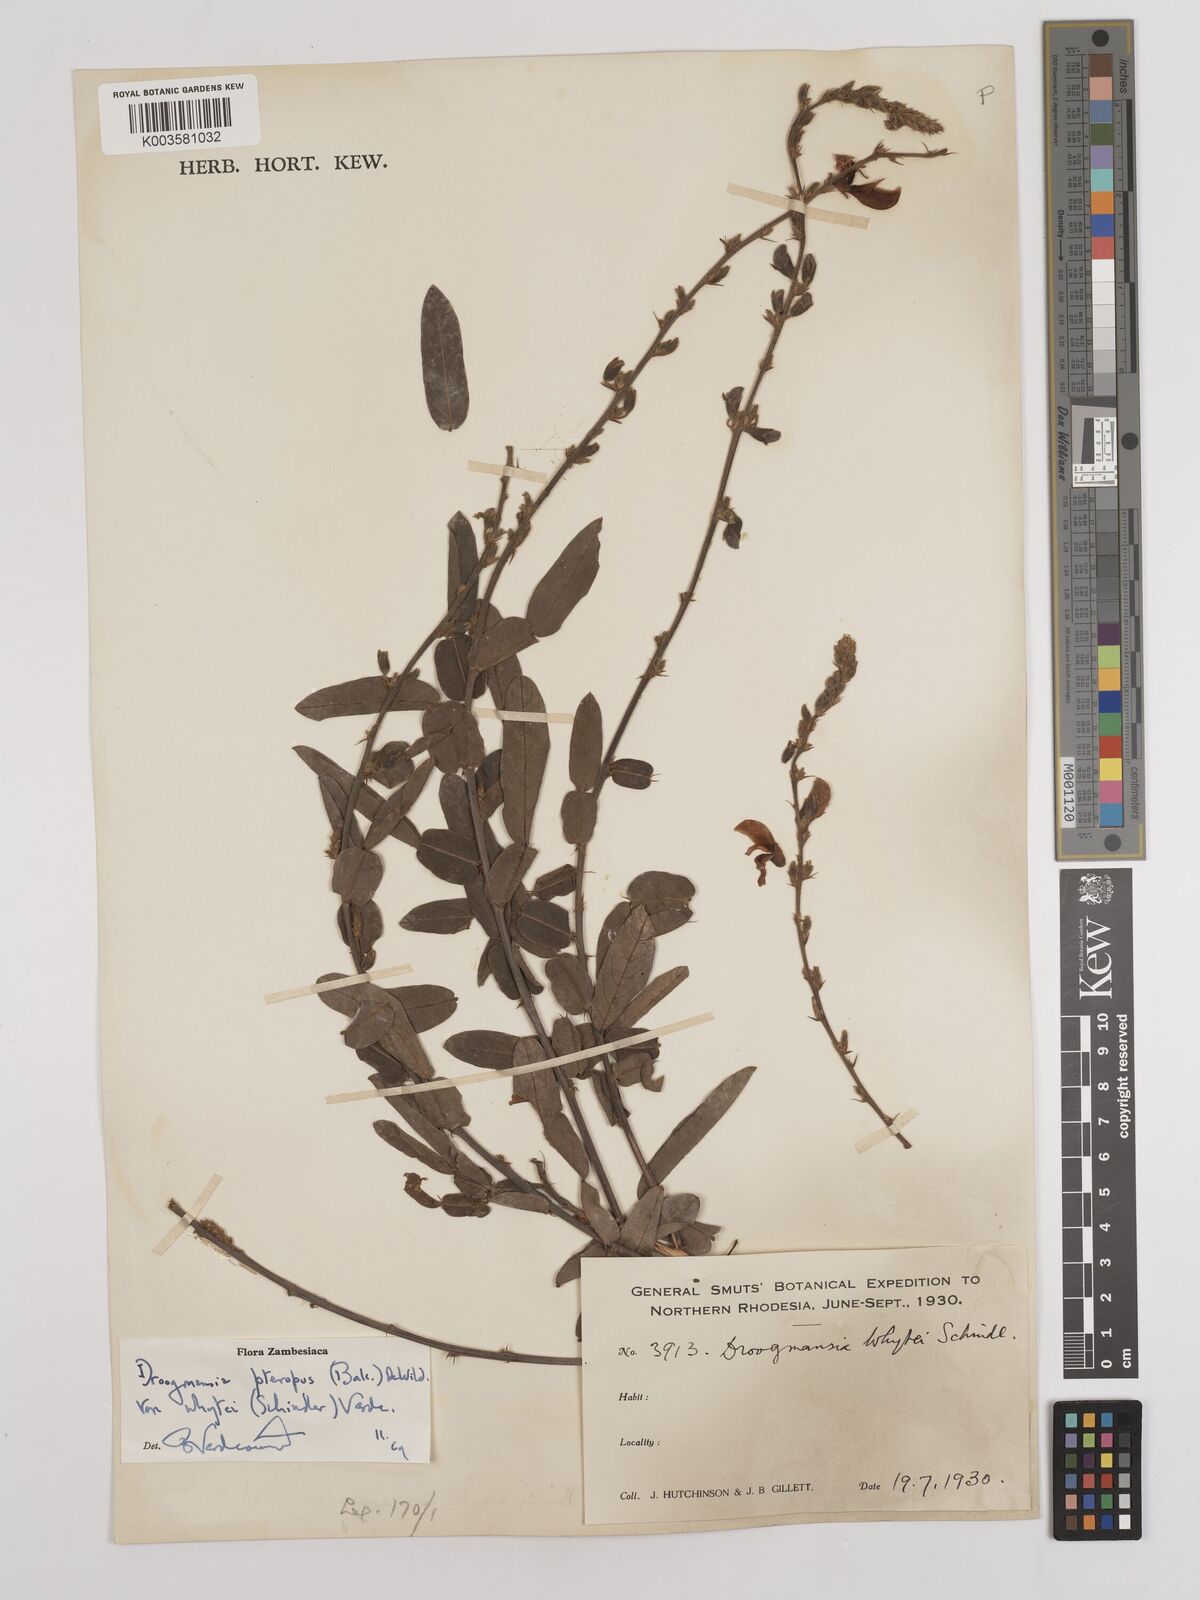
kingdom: Plantae
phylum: Tracheophyta
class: Magnoliopsida
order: Fabales
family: Fabaceae
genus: Droogmansia
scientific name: Droogmansia pteropus
